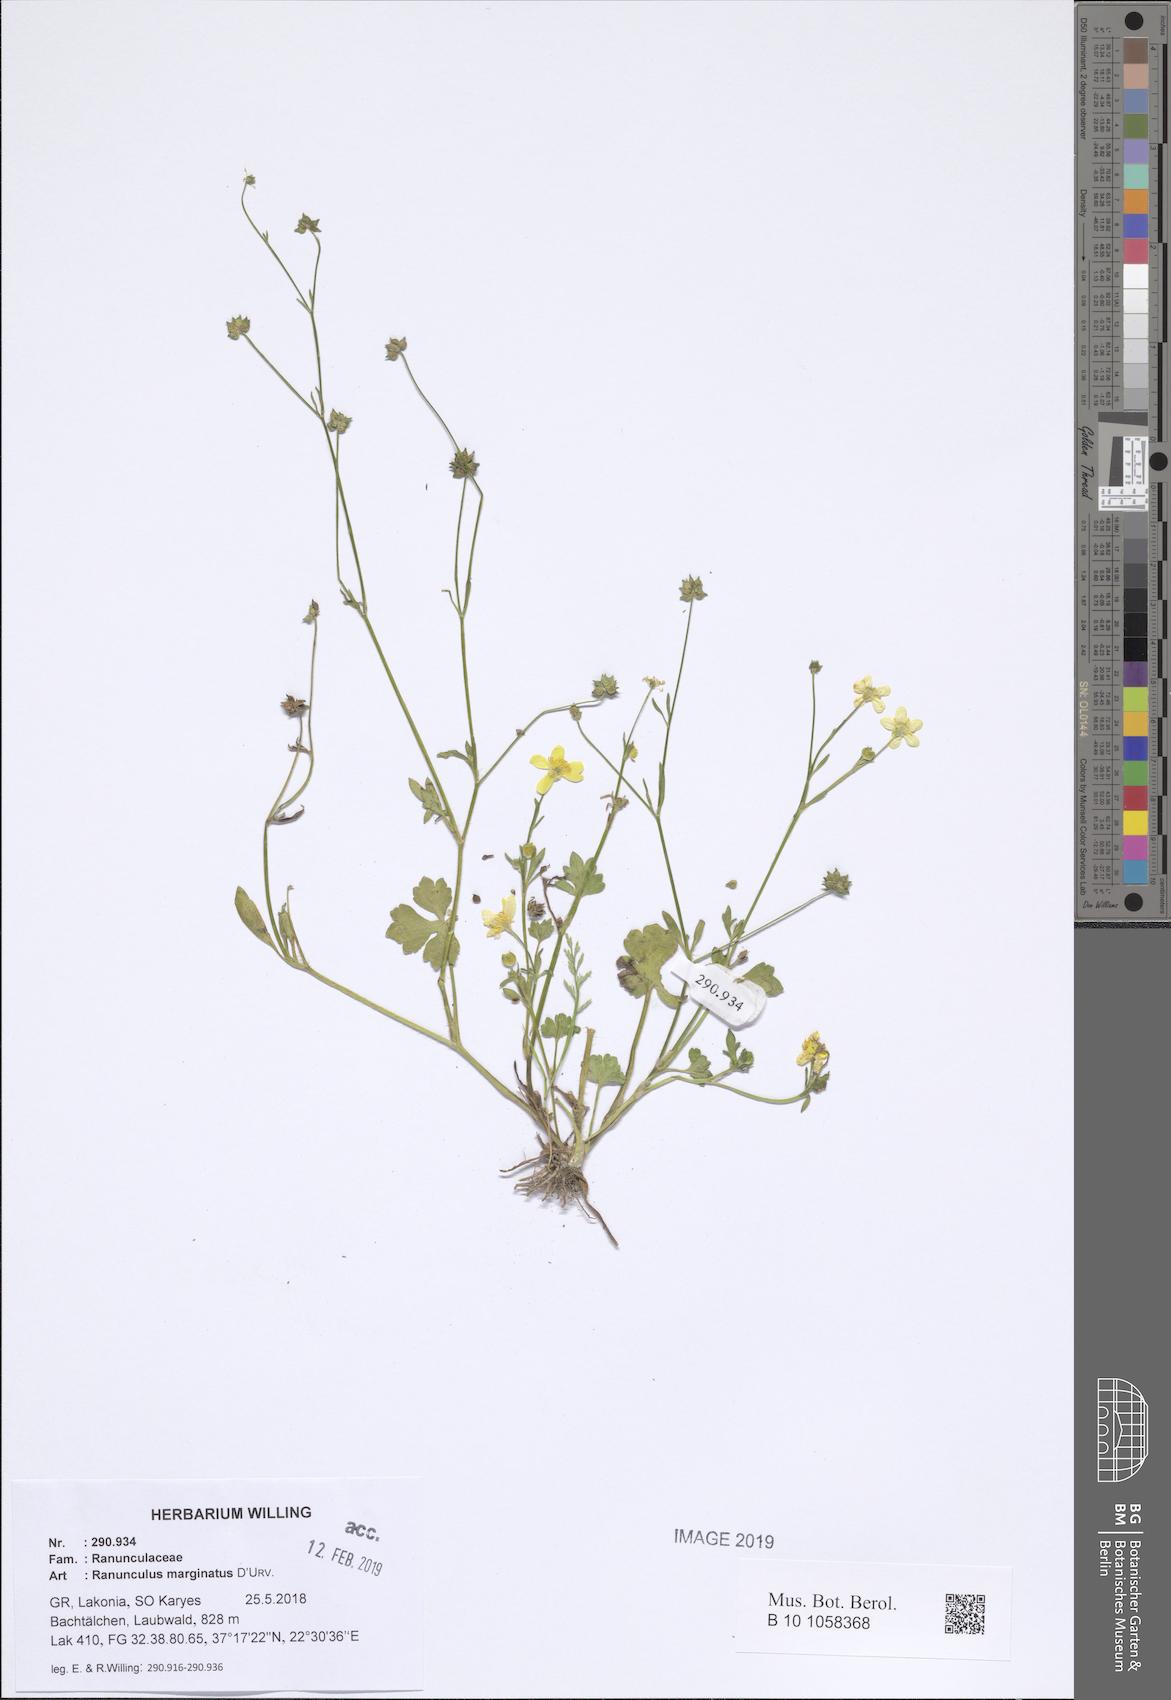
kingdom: Plantae
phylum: Tracheophyta
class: Magnoliopsida
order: Ranunculales
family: Ranunculaceae
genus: Ranunculus
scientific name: Ranunculus marginatus
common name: St. martin's buttercup
